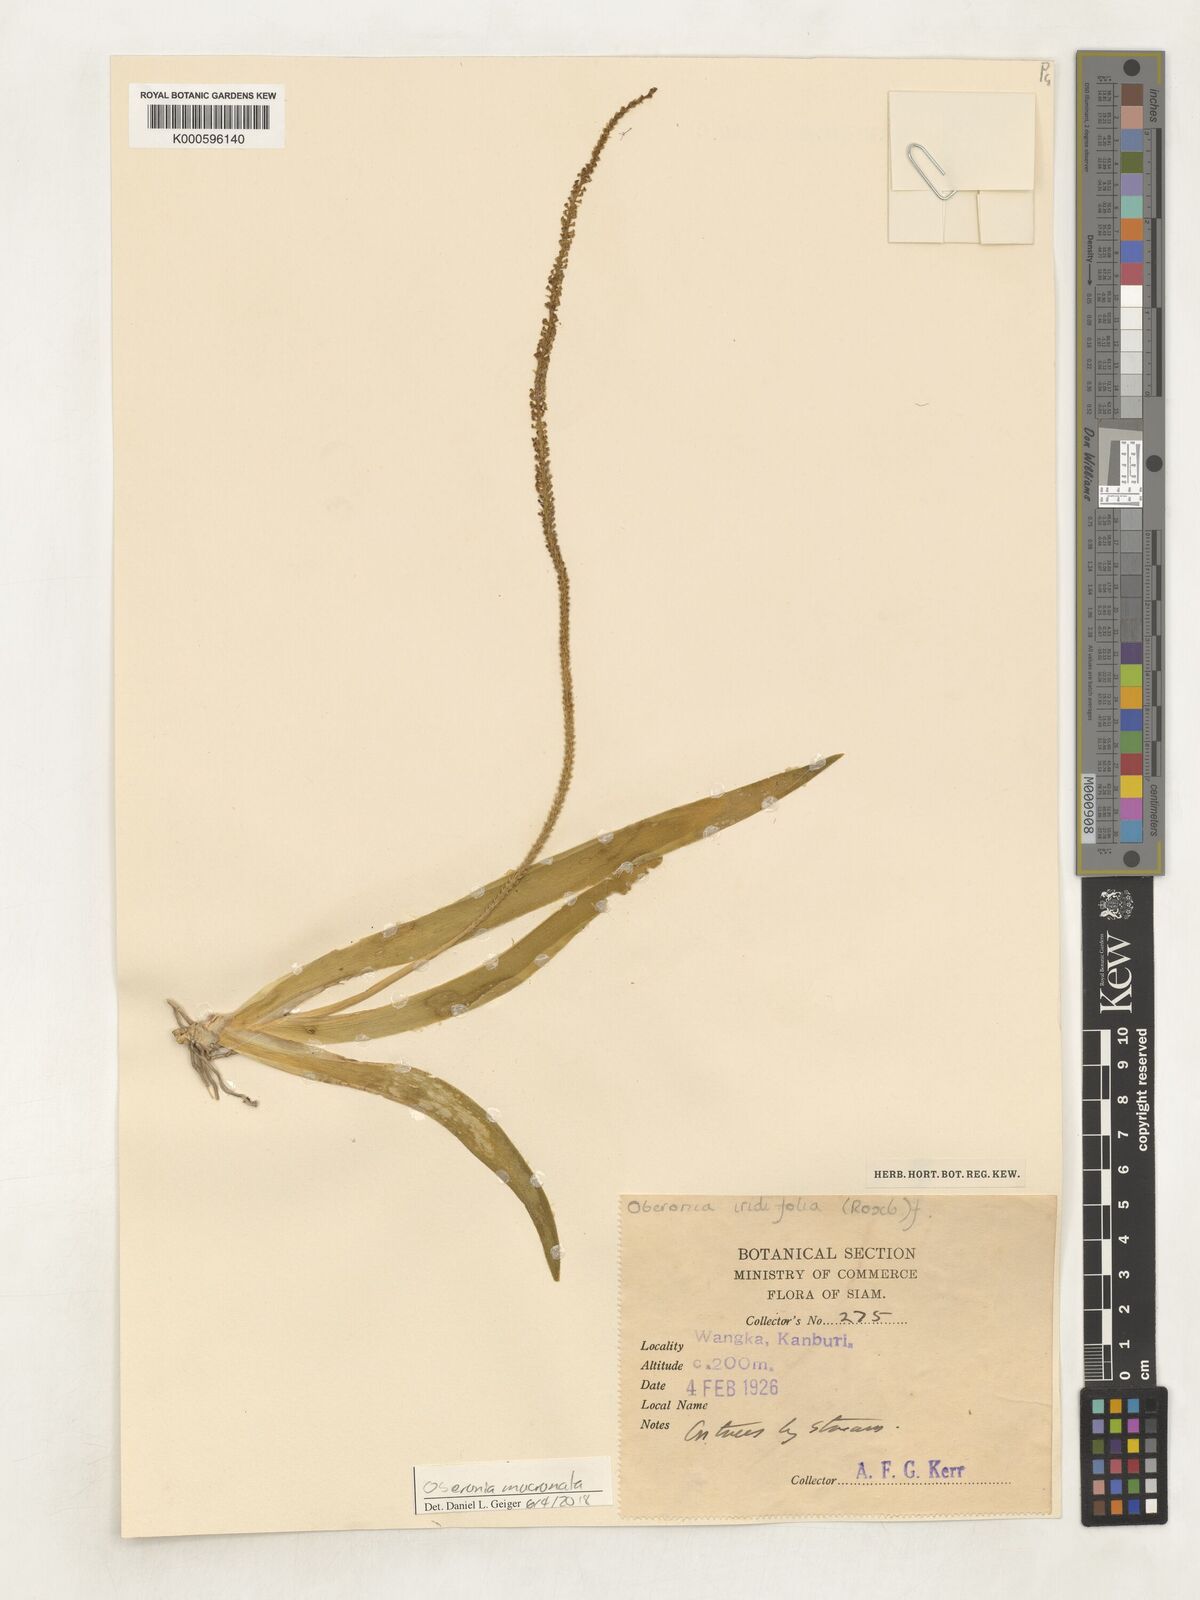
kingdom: Plantae
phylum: Tracheophyta
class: Liliopsida
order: Asparagales
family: Orchidaceae
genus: Oberonia
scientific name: Oberonia
